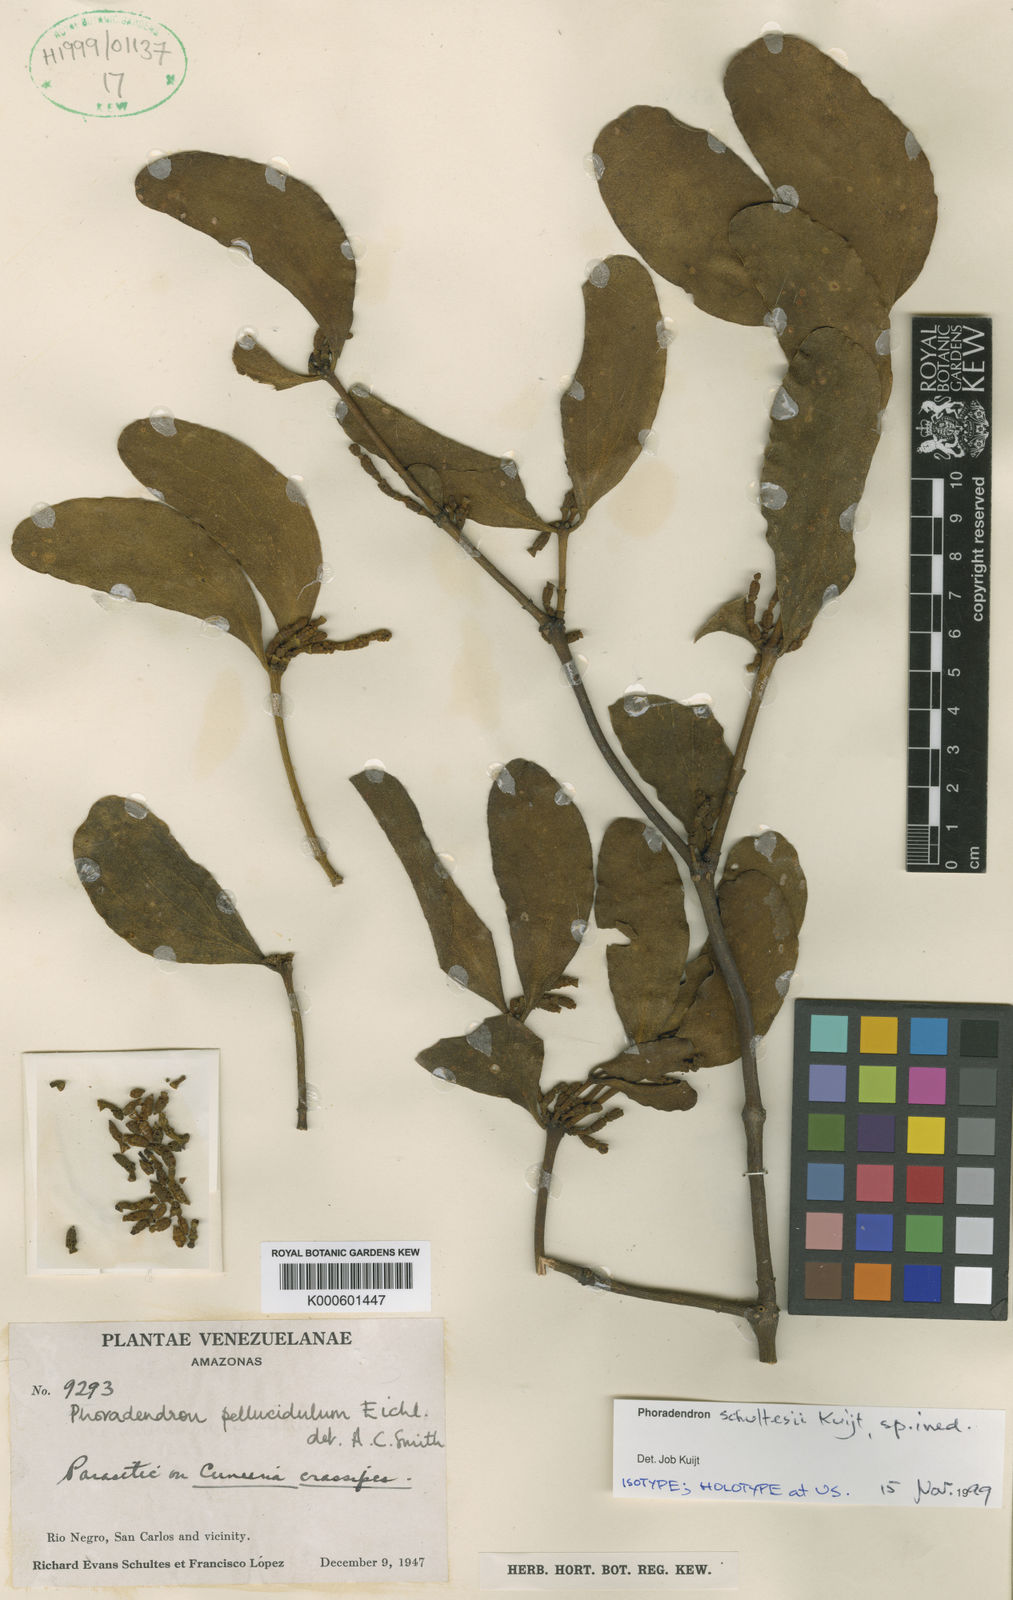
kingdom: Plantae
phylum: Tracheophyta
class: Magnoliopsida
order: Santalales
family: Viscaceae
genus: Phoradendron
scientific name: Phoradendron pellucidulum
